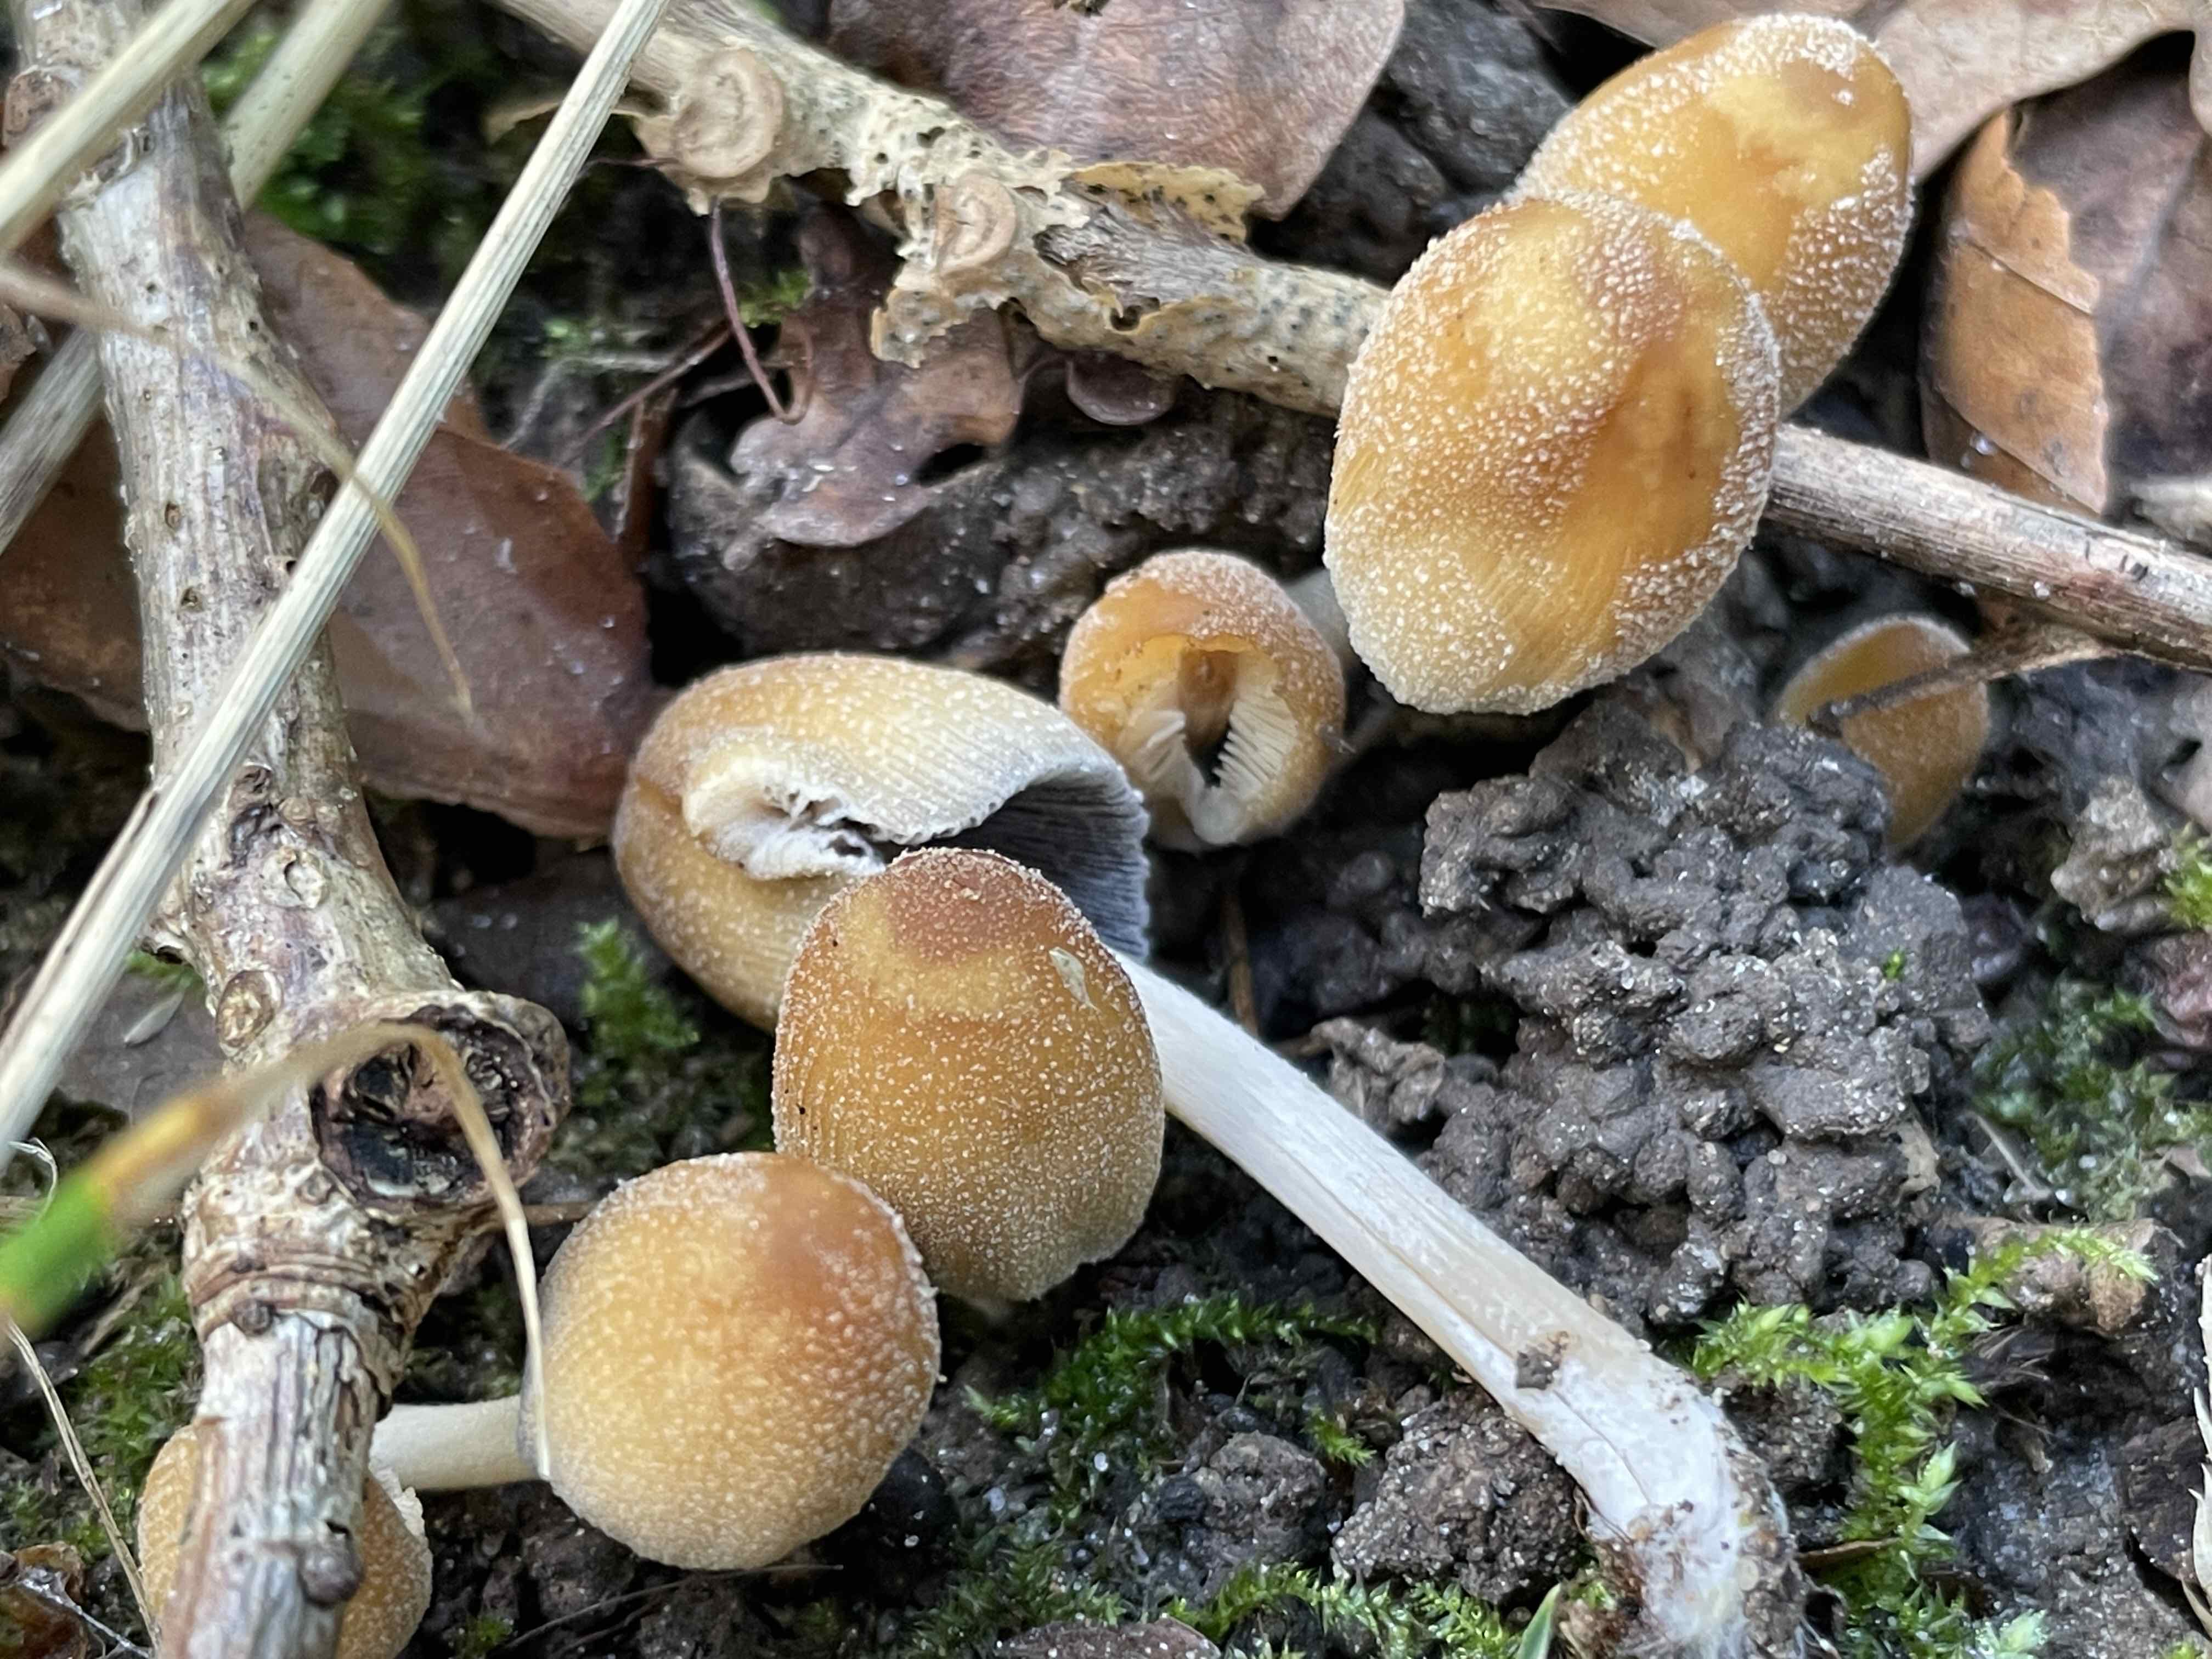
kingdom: Fungi
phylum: Basidiomycota
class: Agaricomycetes
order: Agaricales
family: Psathyrellaceae
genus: Coprinellus
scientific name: Coprinellus micaceus
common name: glimmer-blækhat
